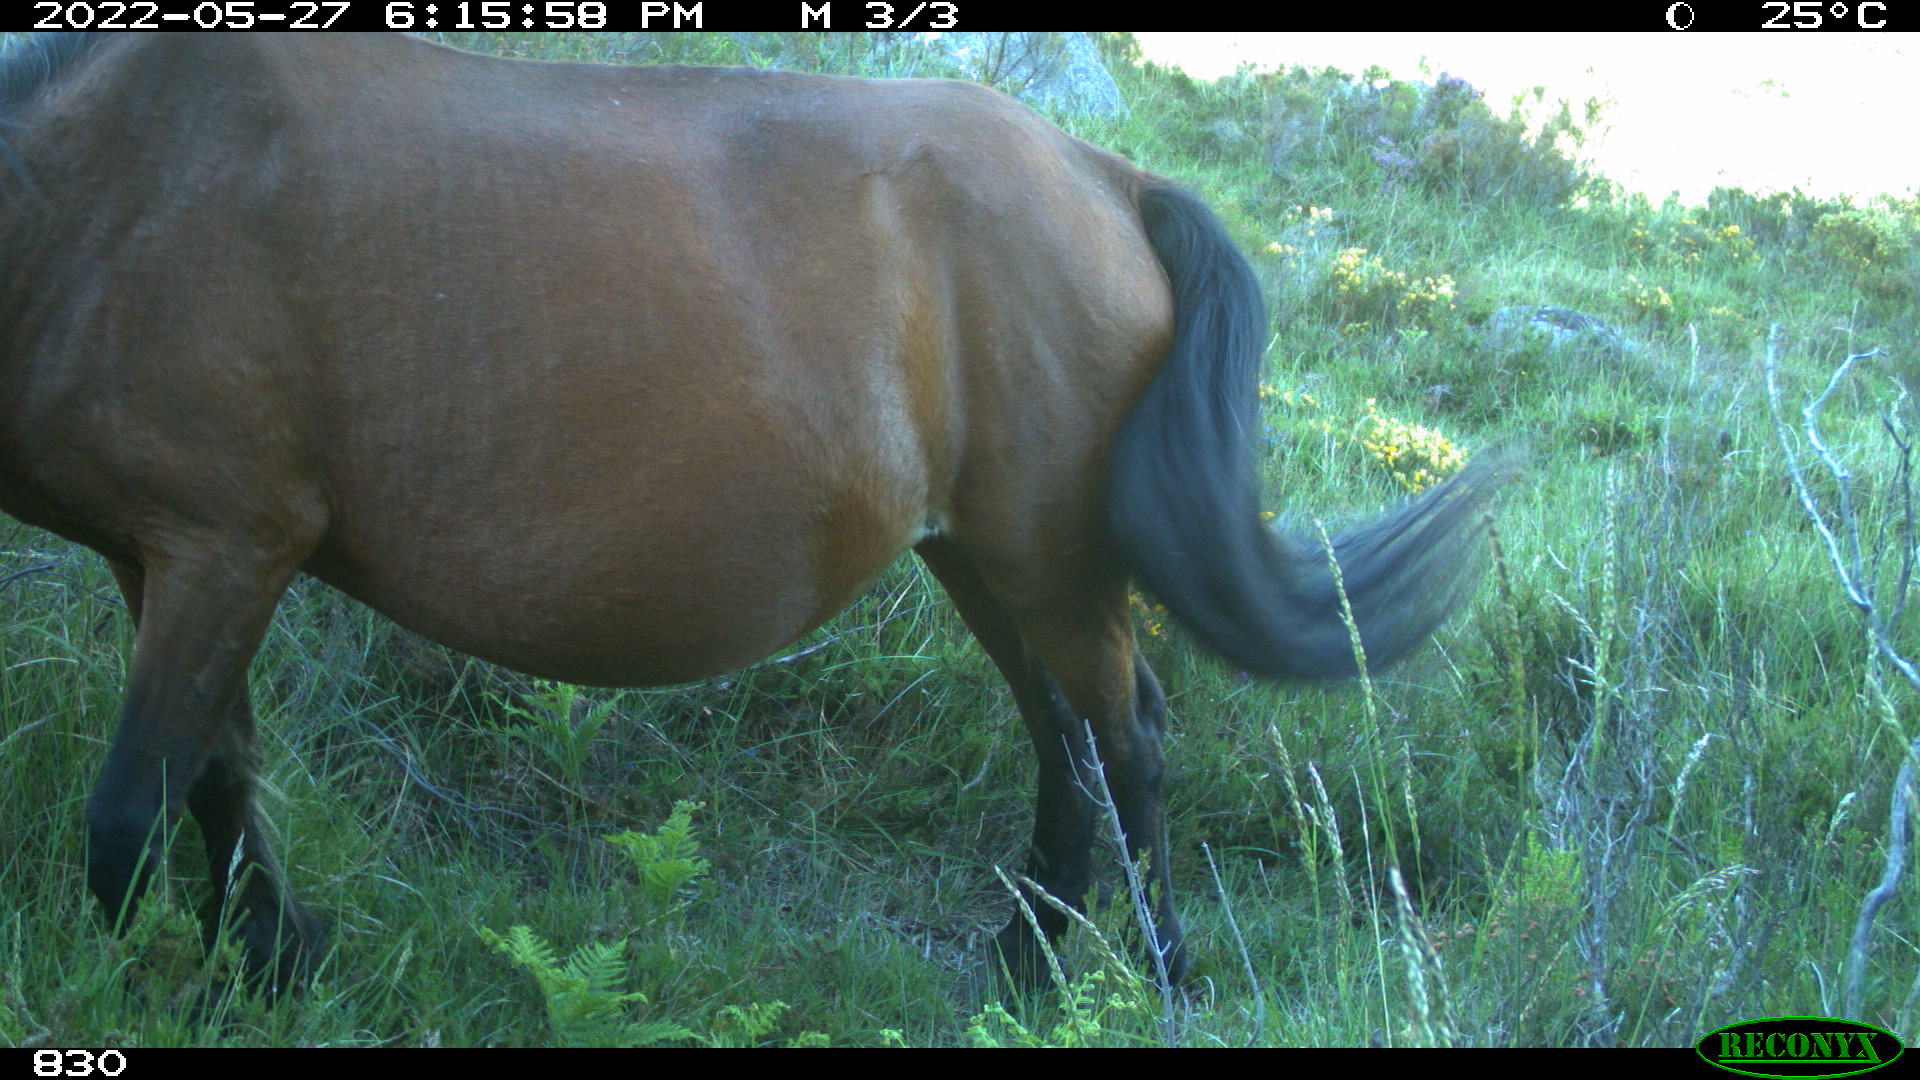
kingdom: Animalia
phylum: Chordata
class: Mammalia
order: Perissodactyla
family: Equidae
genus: Equus
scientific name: Equus caballus
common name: Horse
